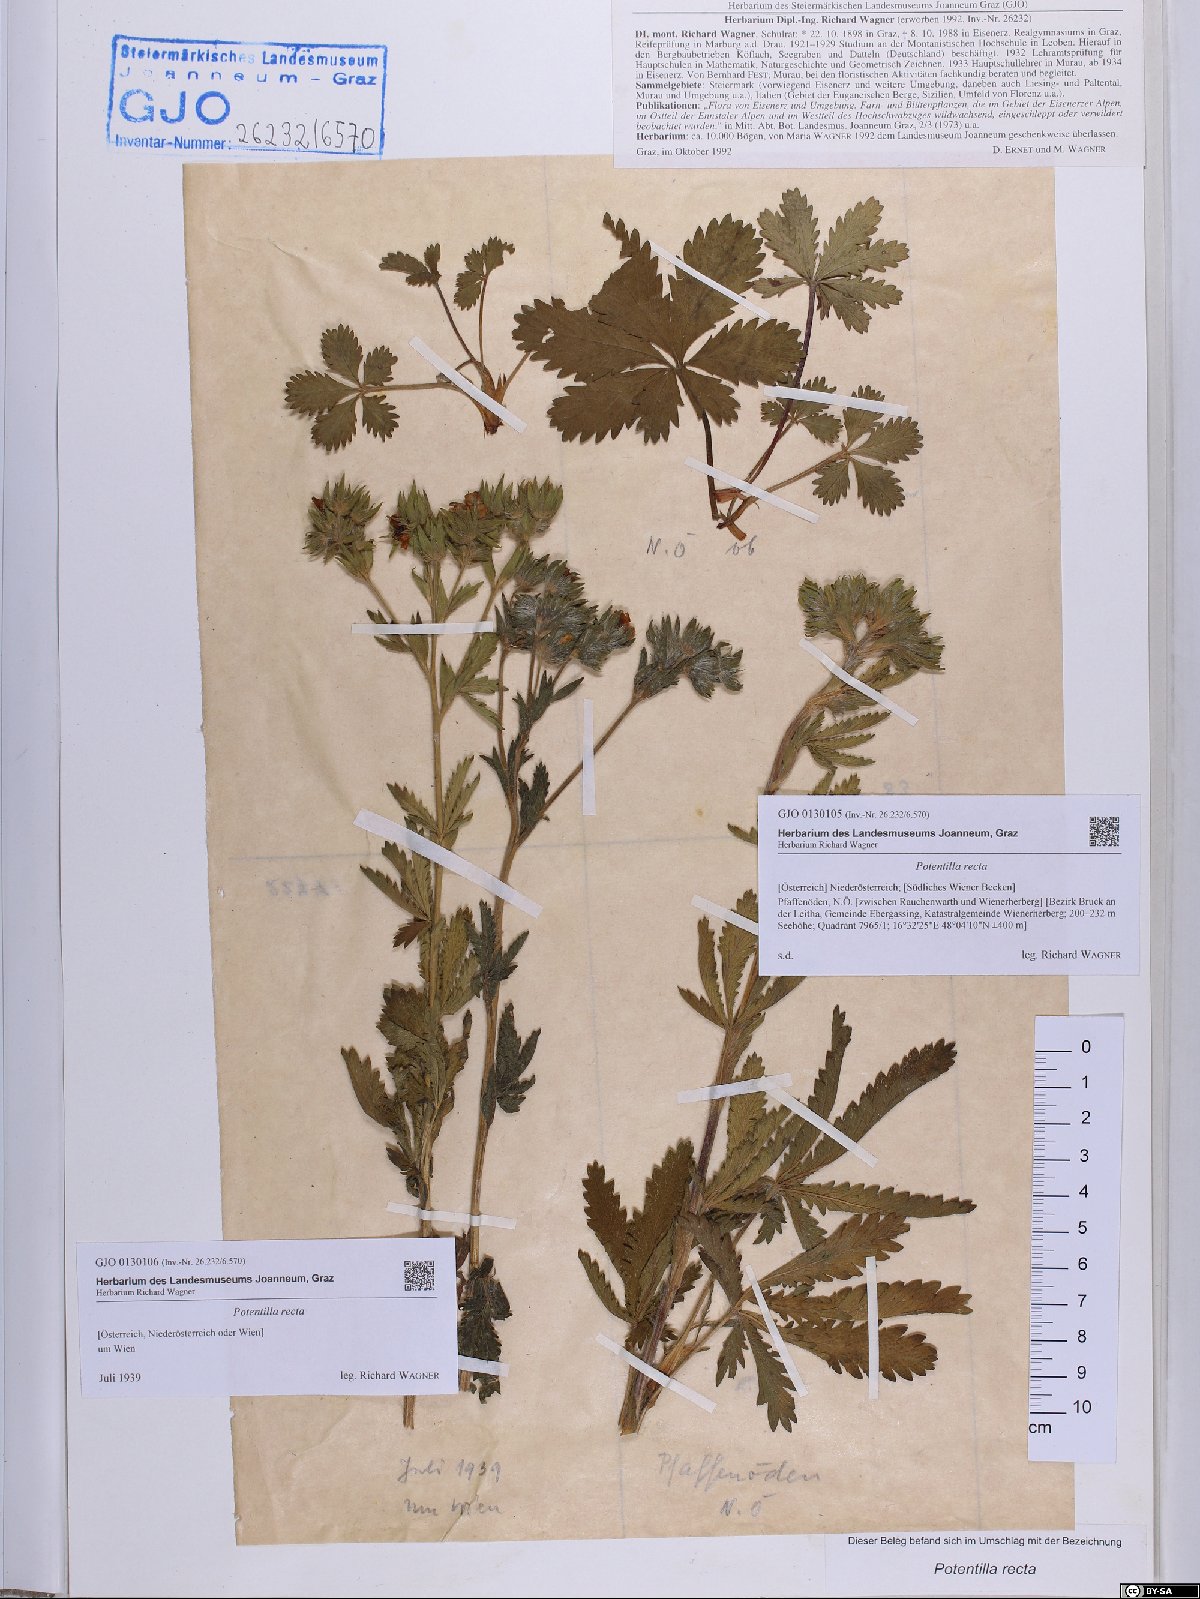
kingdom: Plantae
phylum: Tracheophyta
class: Magnoliopsida
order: Rosales
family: Rosaceae
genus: Potentilla
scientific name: Potentilla recta
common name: Sulphur cinquefoil
